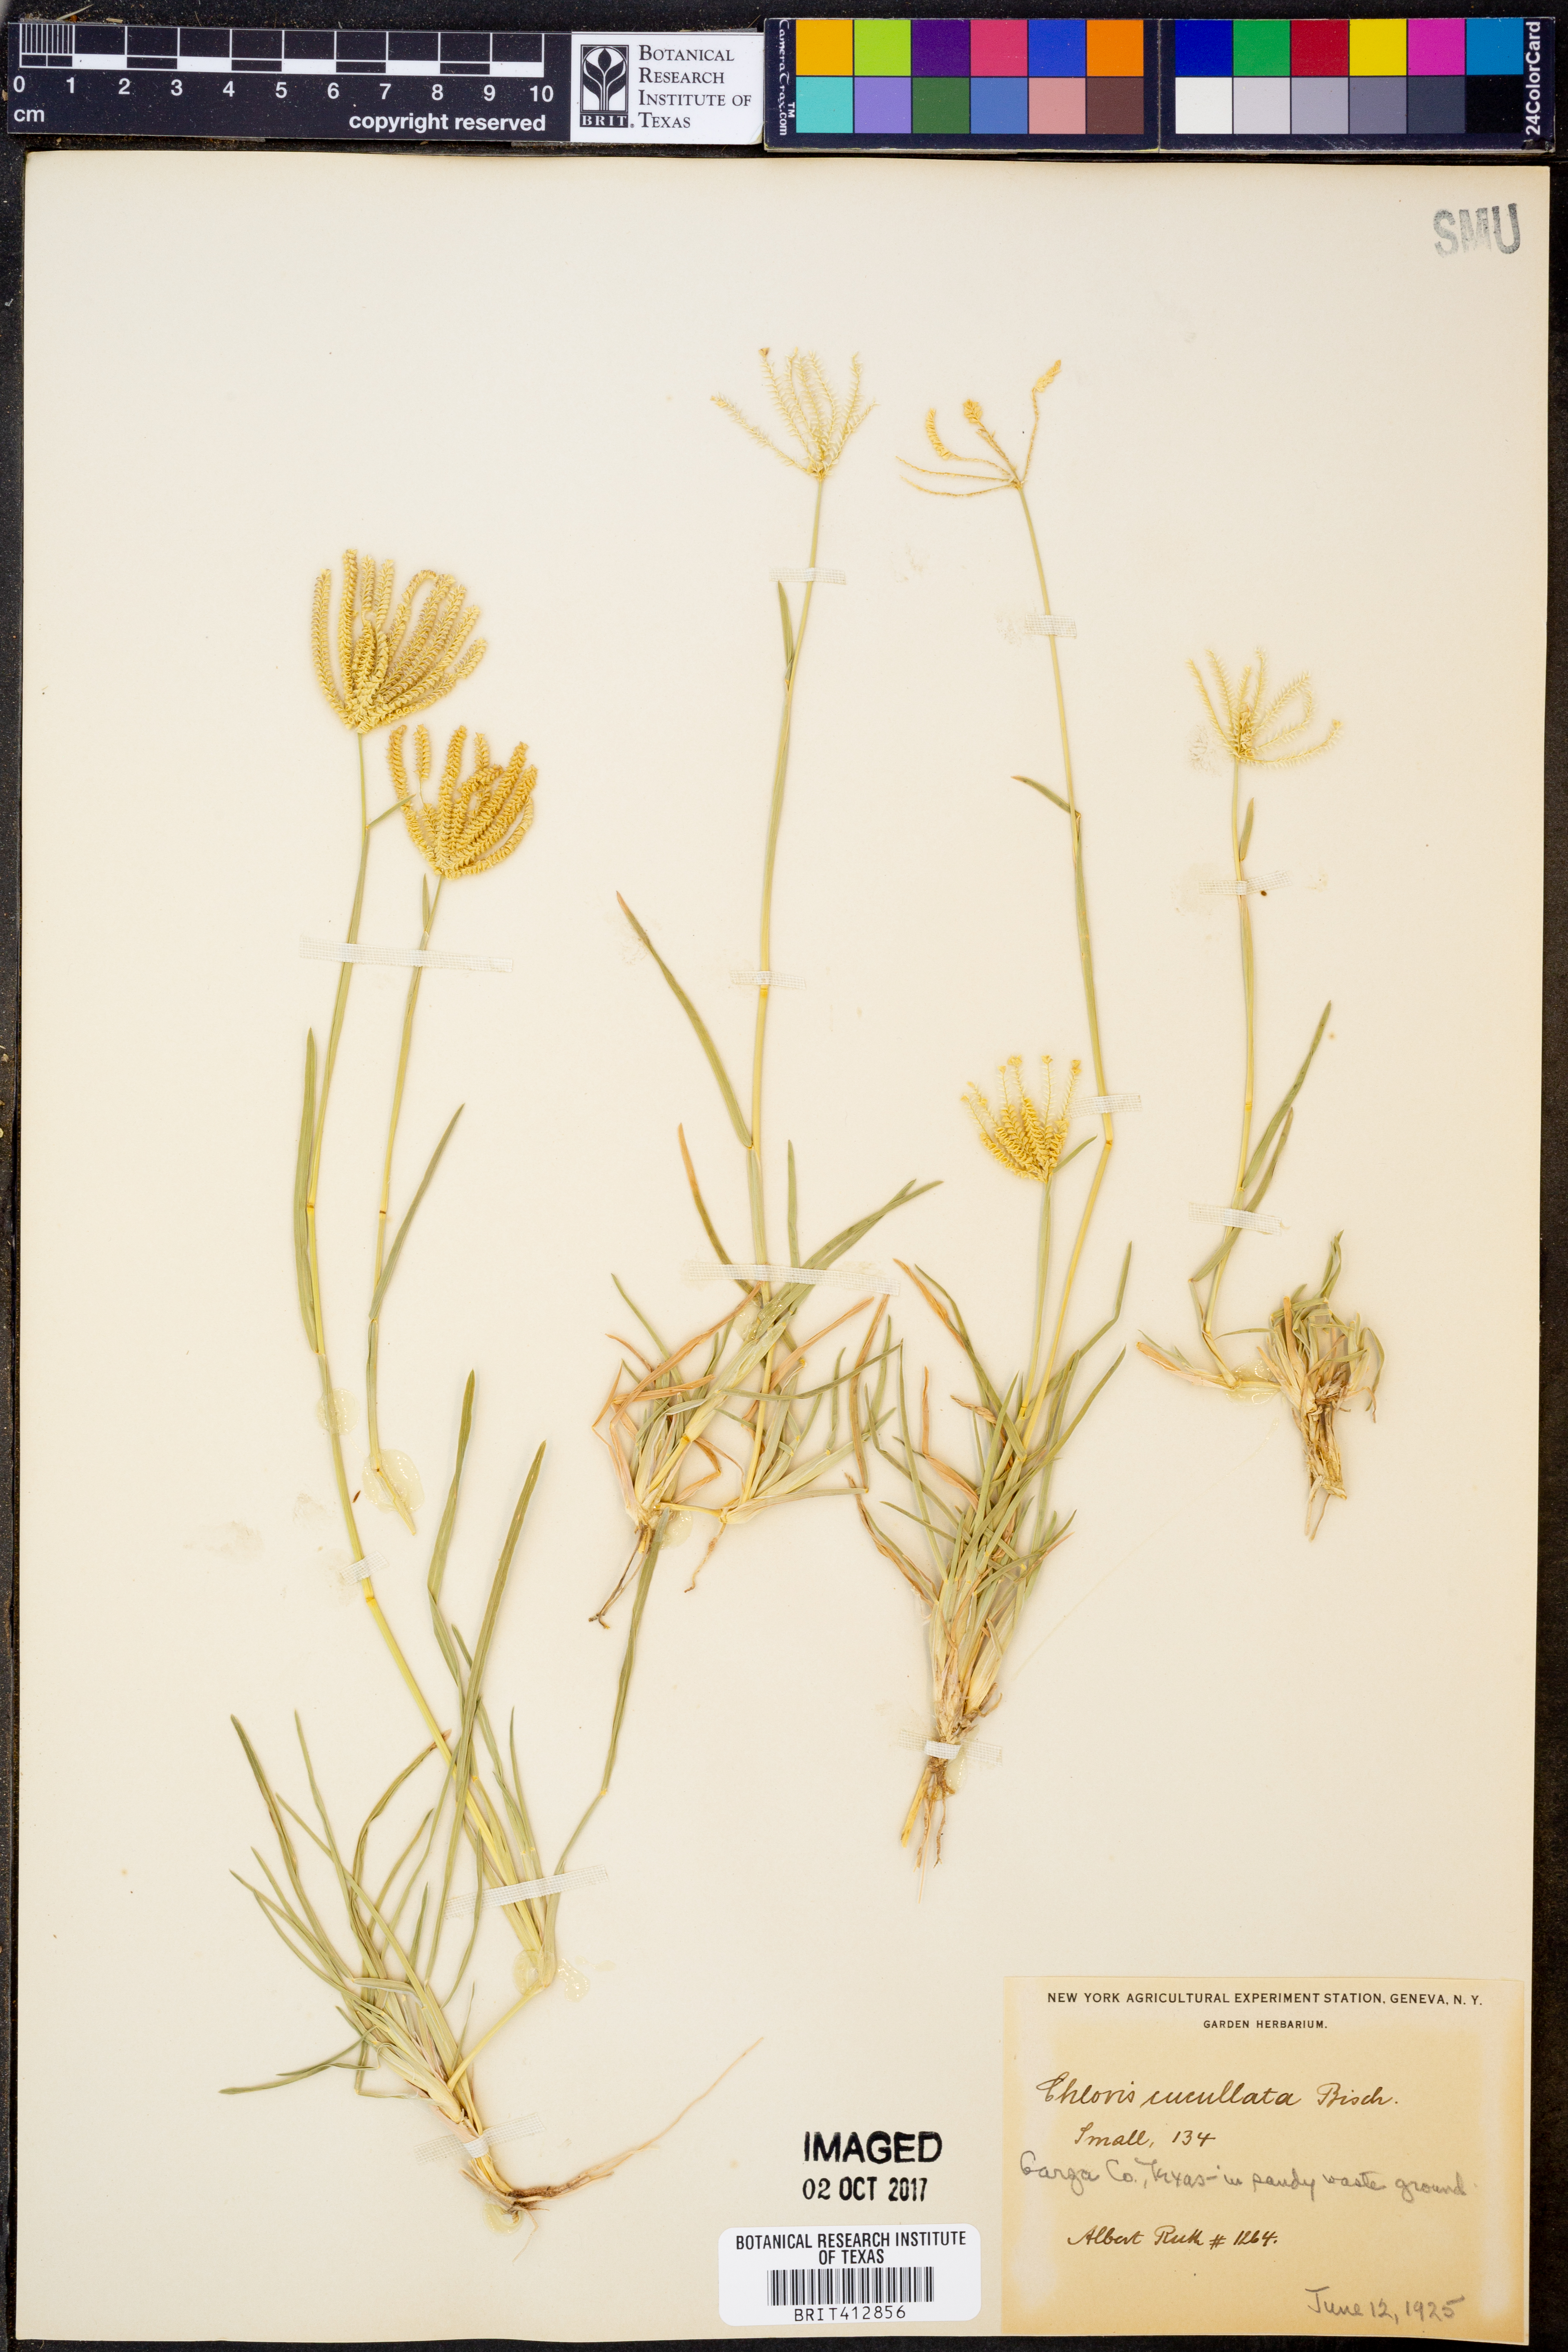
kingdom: Plantae
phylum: Tracheophyta
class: Liliopsida
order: Poales
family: Poaceae
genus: Chloris
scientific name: Chloris cucullata
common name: Hooded windmill grass
